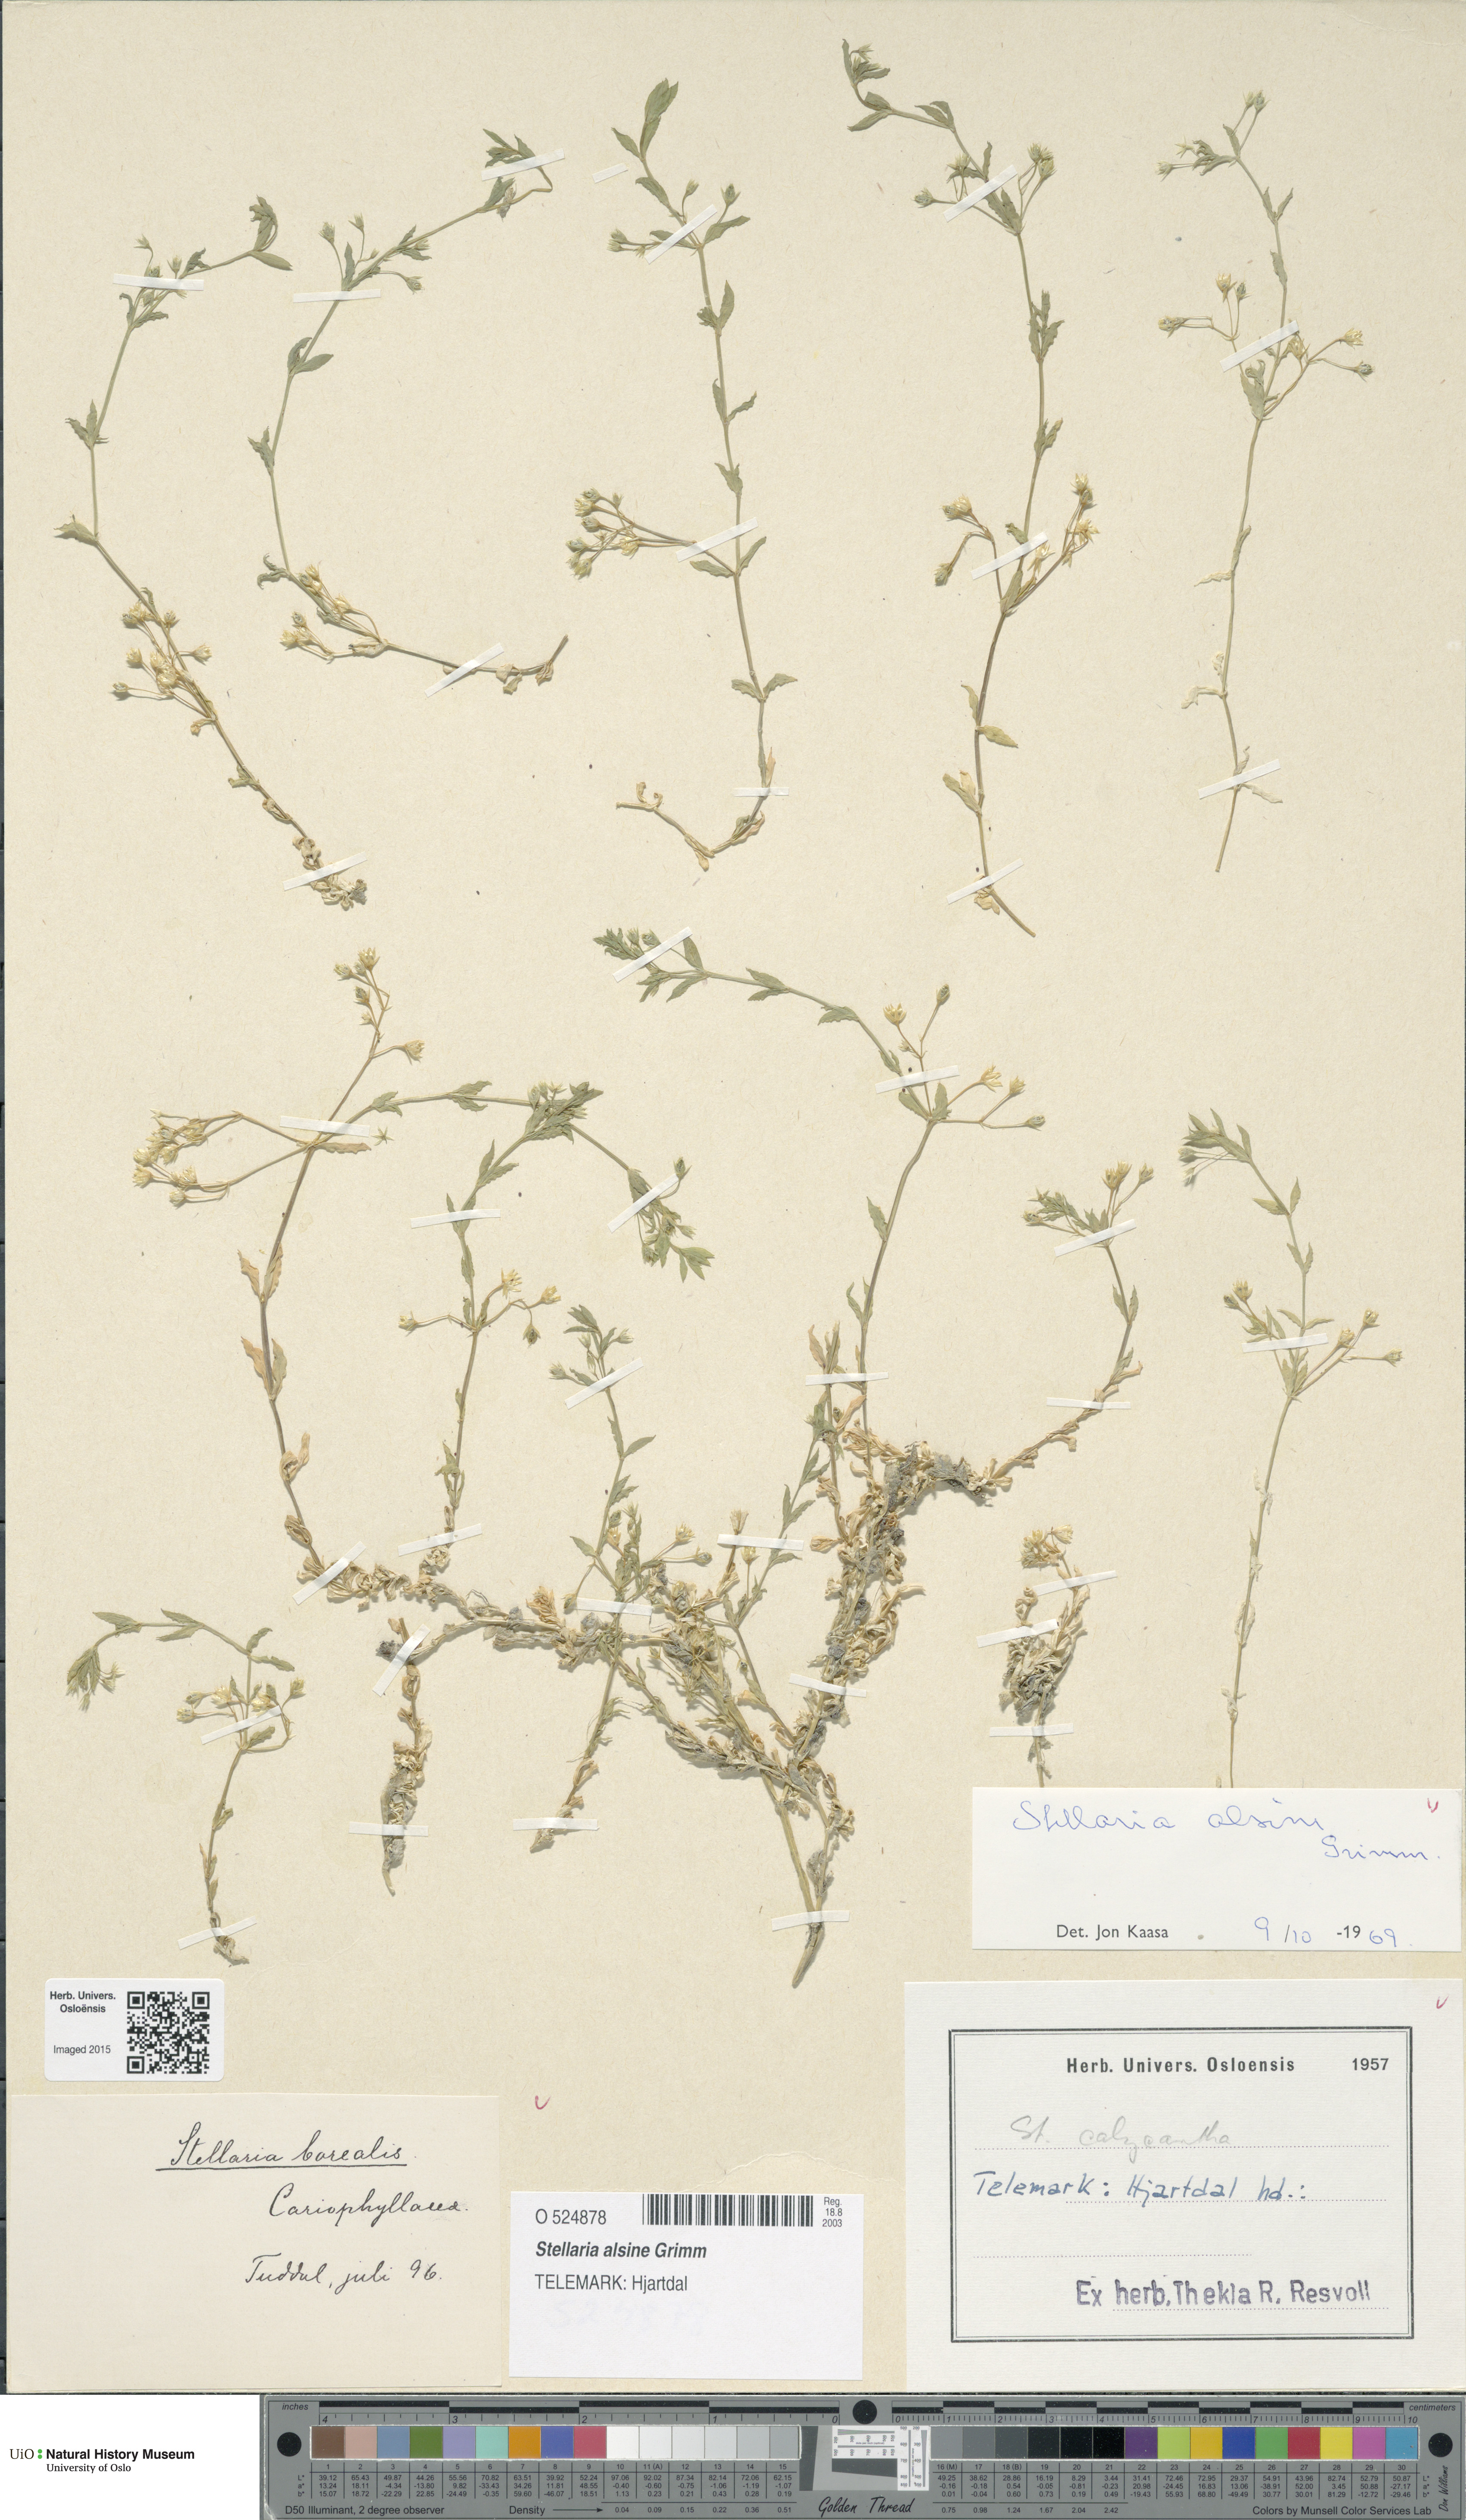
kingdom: Plantae
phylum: Tracheophyta
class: Magnoliopsida
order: Caryophyllales
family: Caryophyllaceae
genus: Stellaria
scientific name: Stellaria alsine
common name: Bog stitchwort
